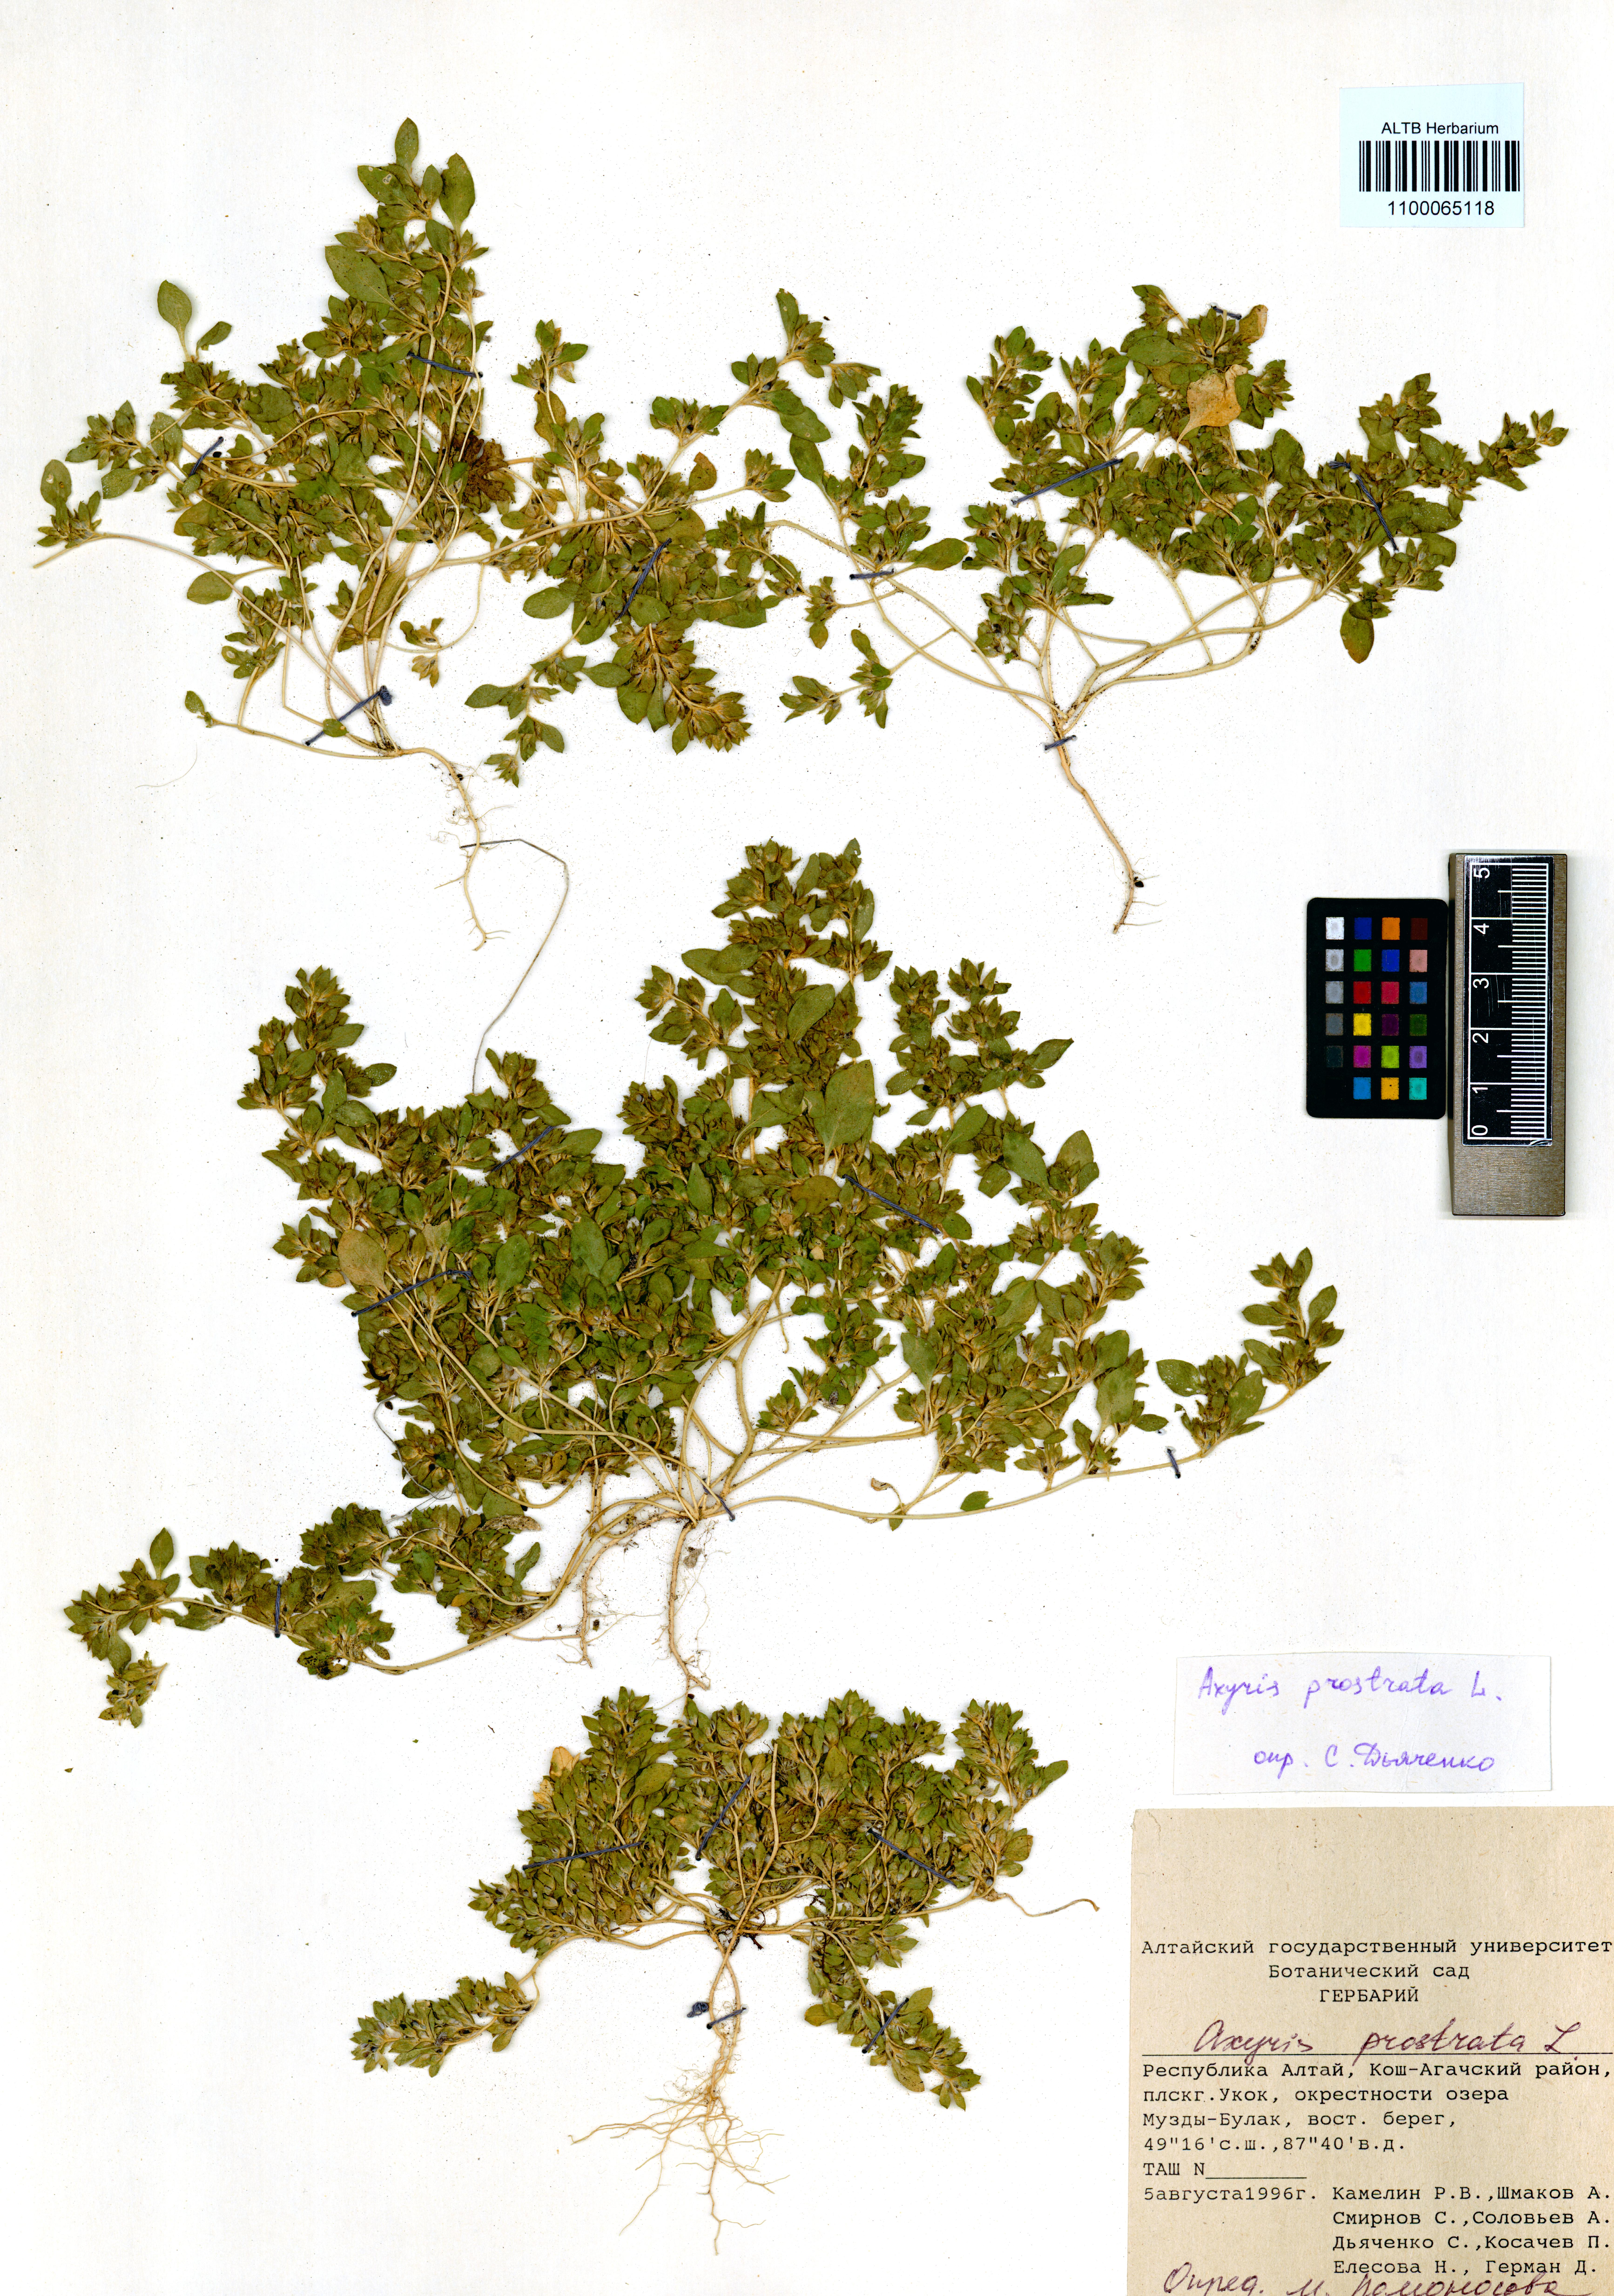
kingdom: Plantae
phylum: Tracheophyta
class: Magnoliopsida
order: Caryophyllales
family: Amaranthaceae
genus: Axyris
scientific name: Axyris prostrata
